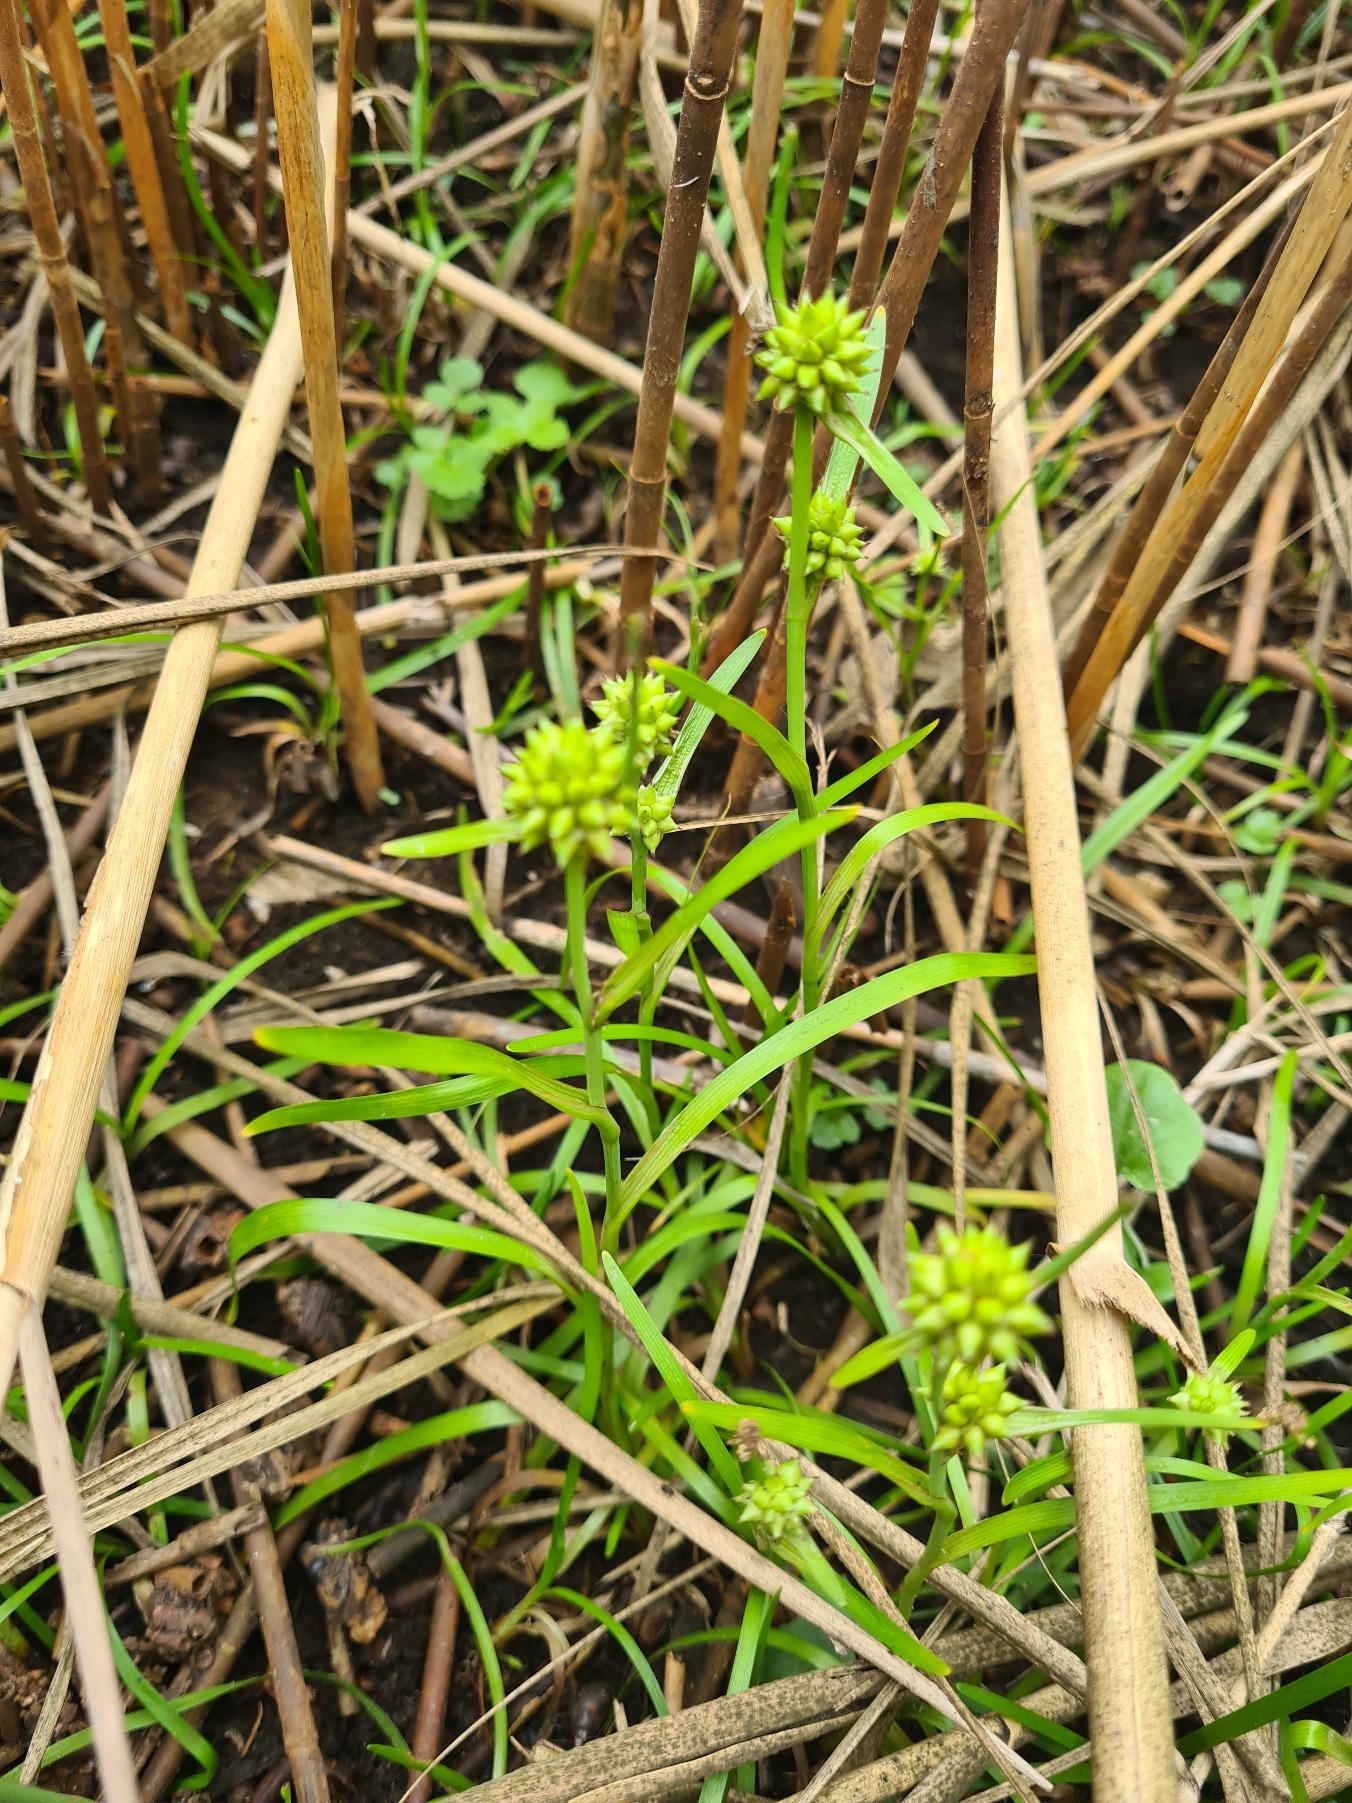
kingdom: Plantae
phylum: Tracheophyta
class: Liliopsida
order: Poales
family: Typhaceae
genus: Sparganium
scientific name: Sparganium natans
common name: Spæd pindsvineknop
